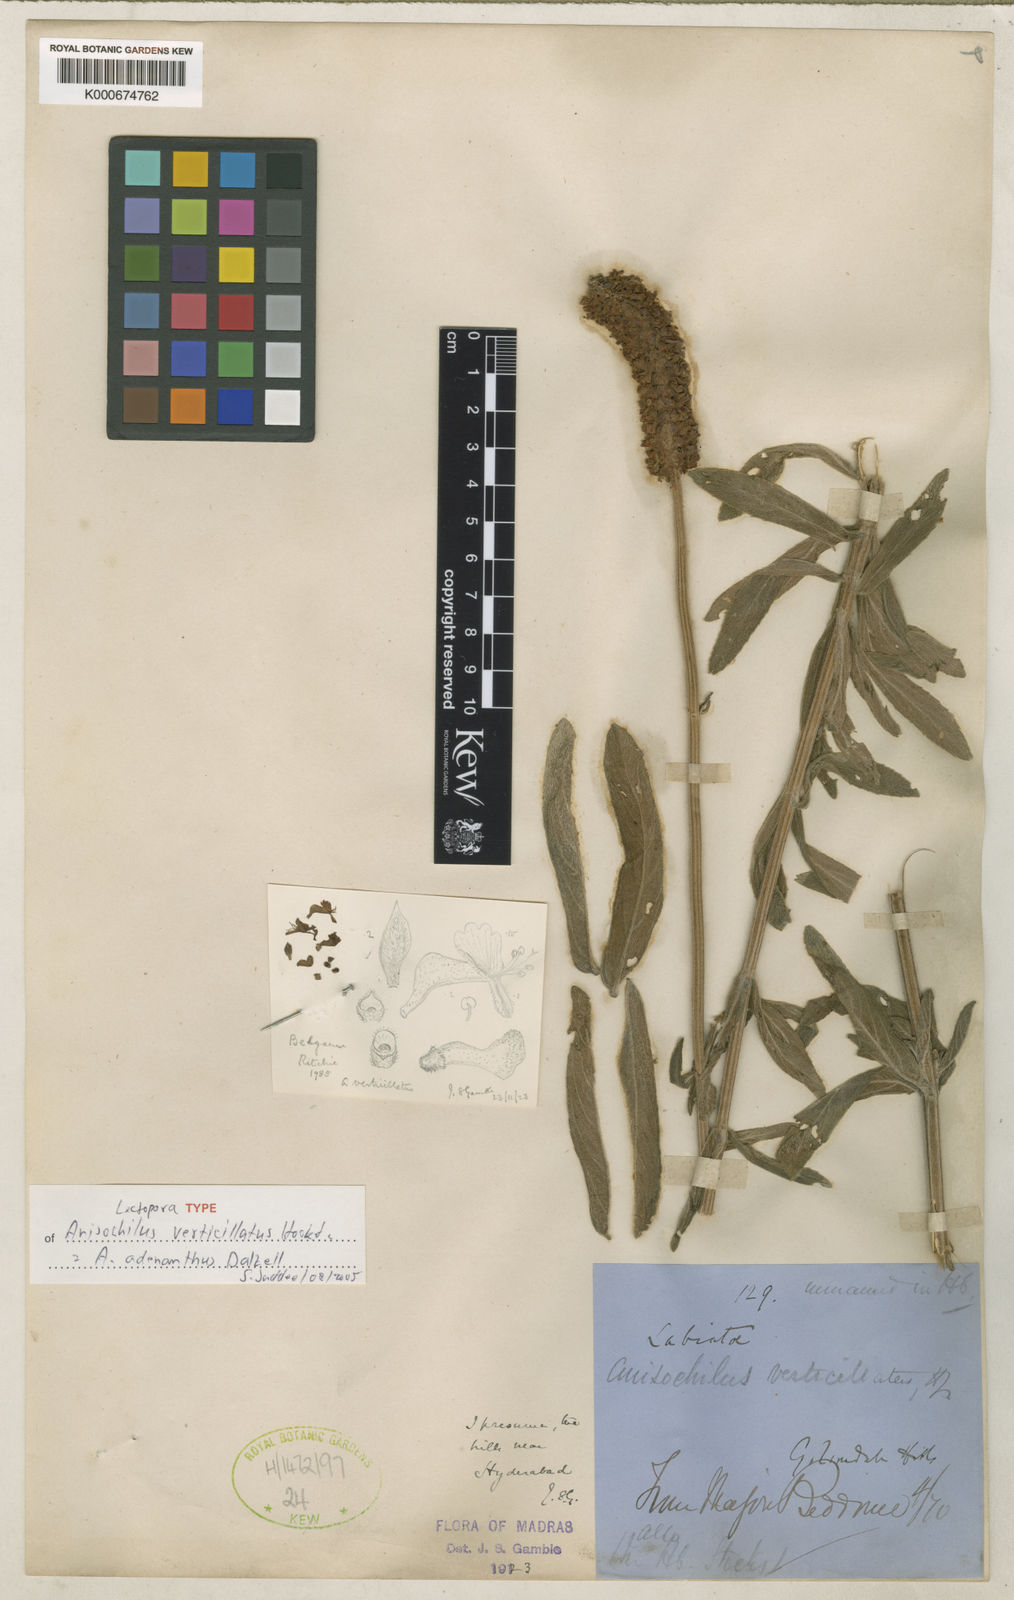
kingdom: Plantae
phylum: Tracheophyta
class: Magnoliopsida
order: Lamiales
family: Lamiaceae
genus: Coleus
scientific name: Coleus adenanthus
